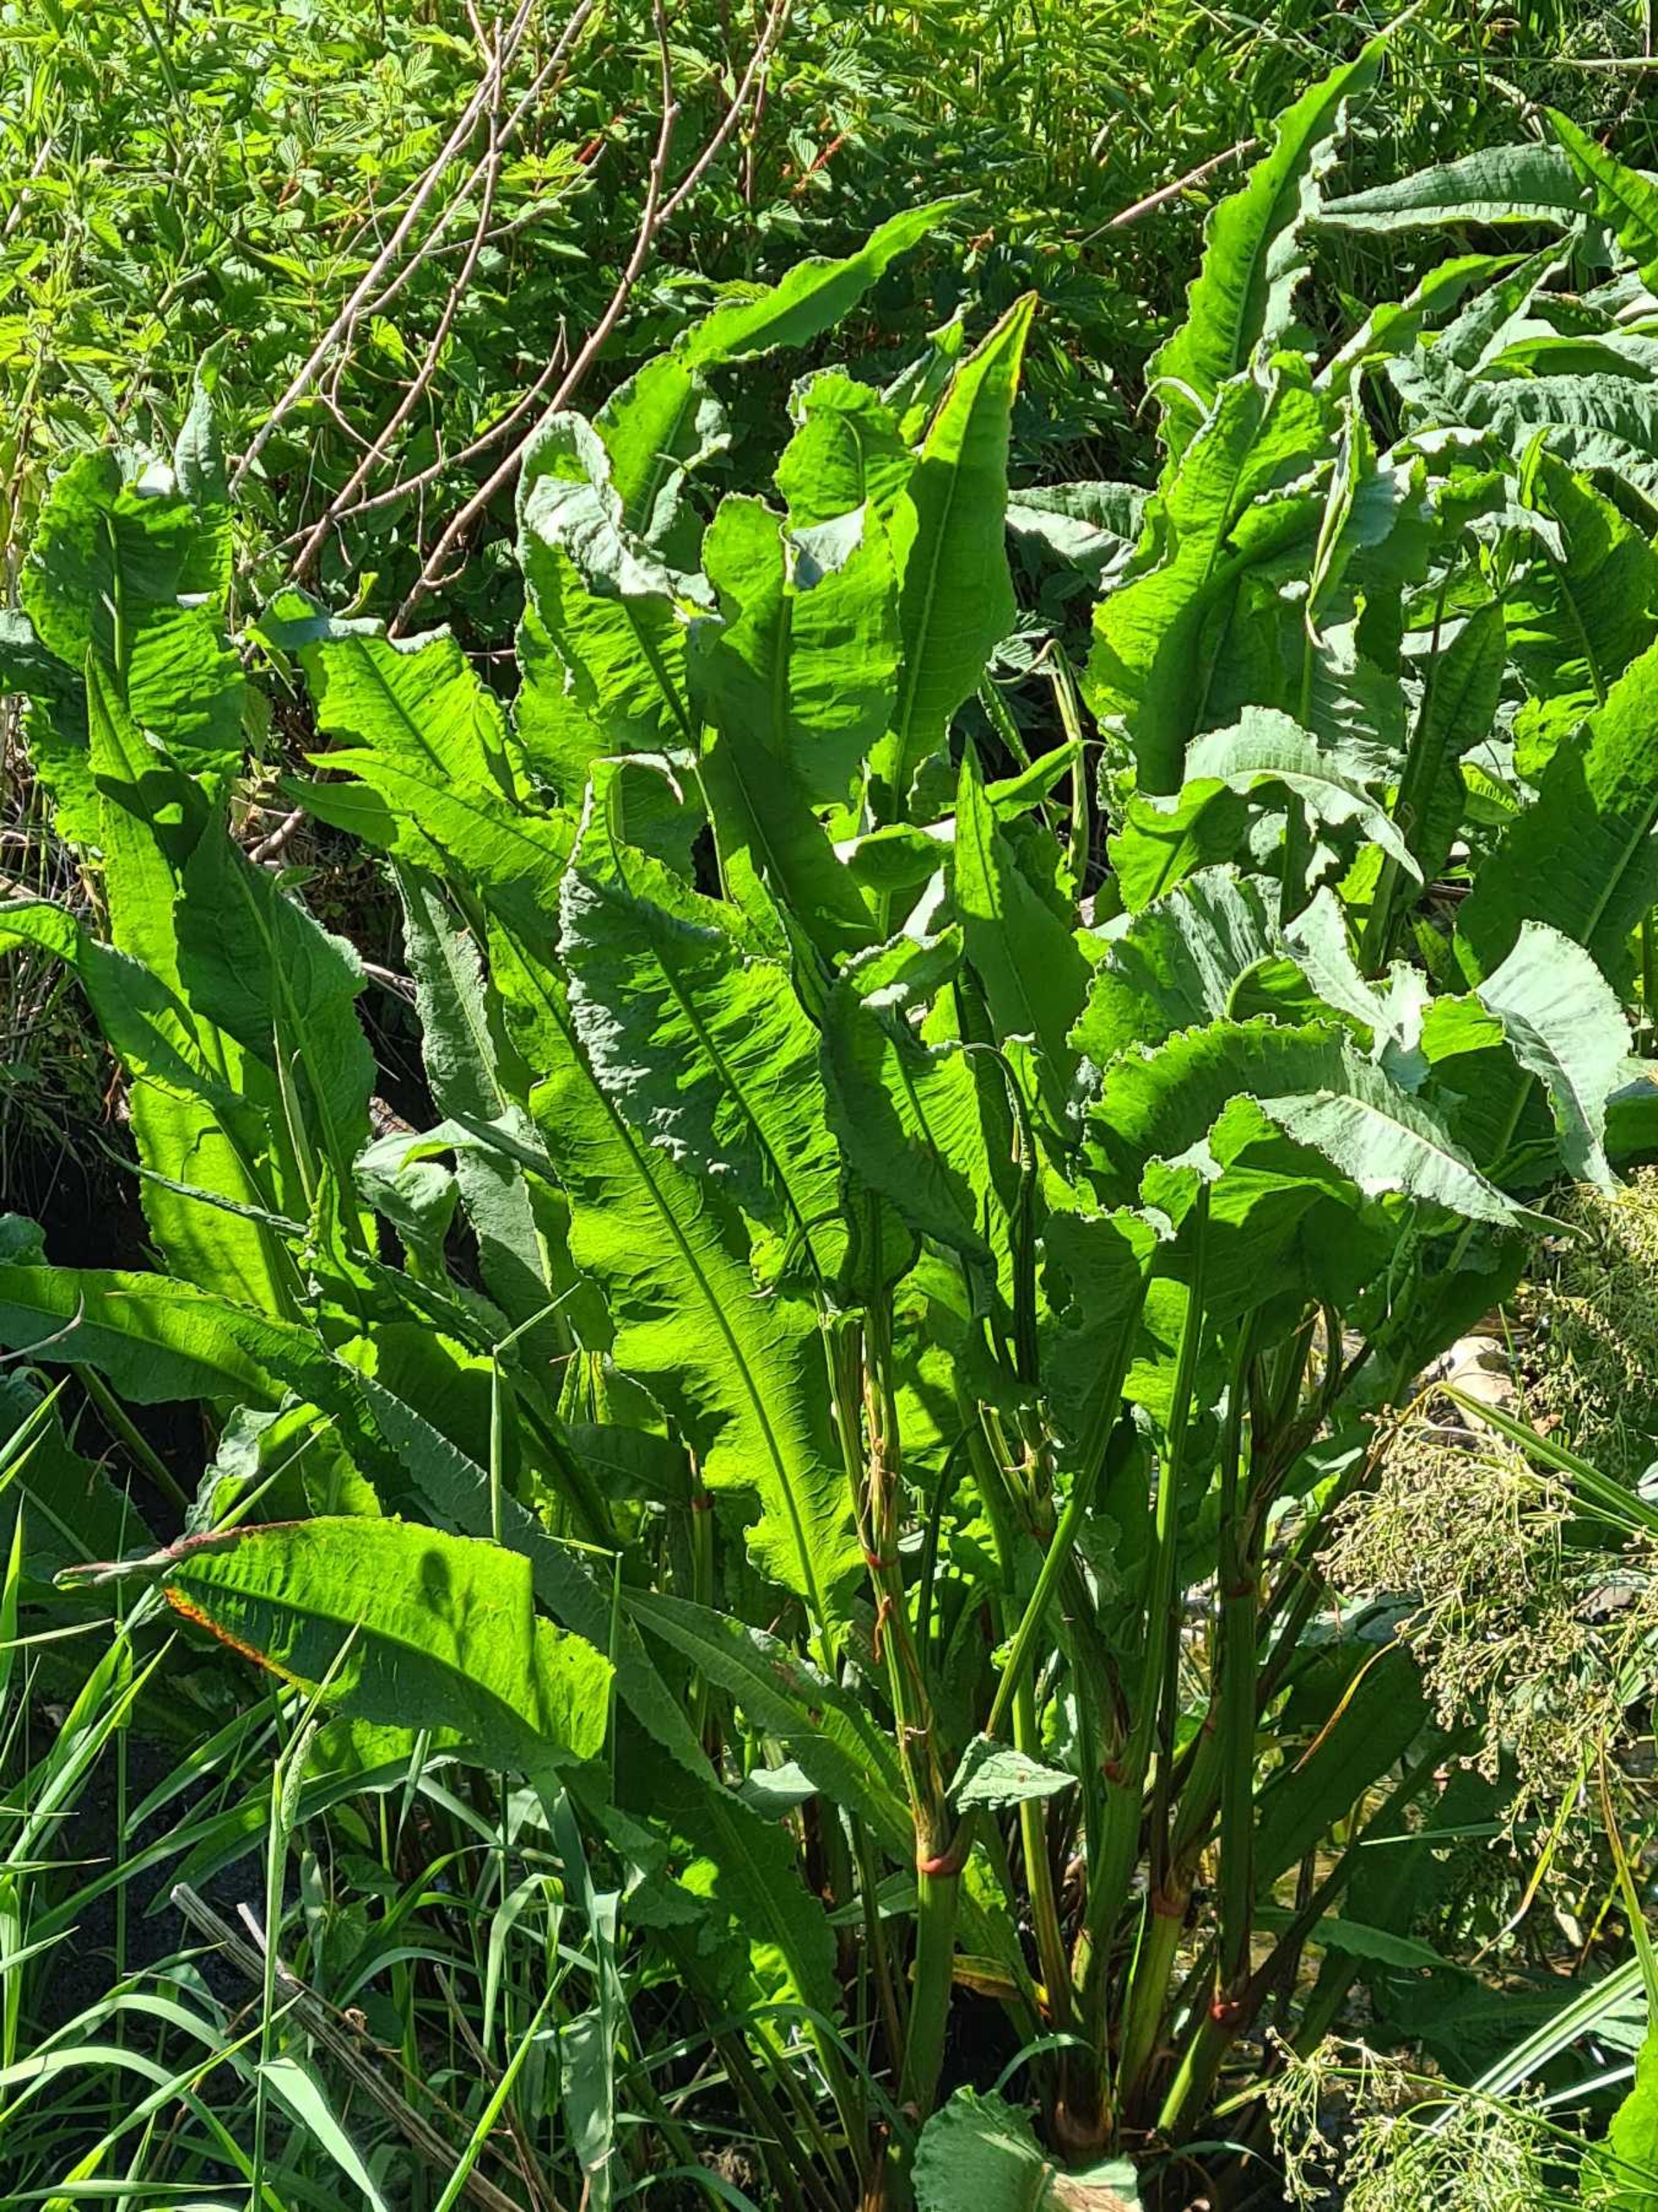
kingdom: Plantae
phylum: Tracheophyta
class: Magnoliopsida
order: Caryophyllales
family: Polygonaceae
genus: Rumex
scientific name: Rumex hydrolapathum
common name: Vand-skræppe
